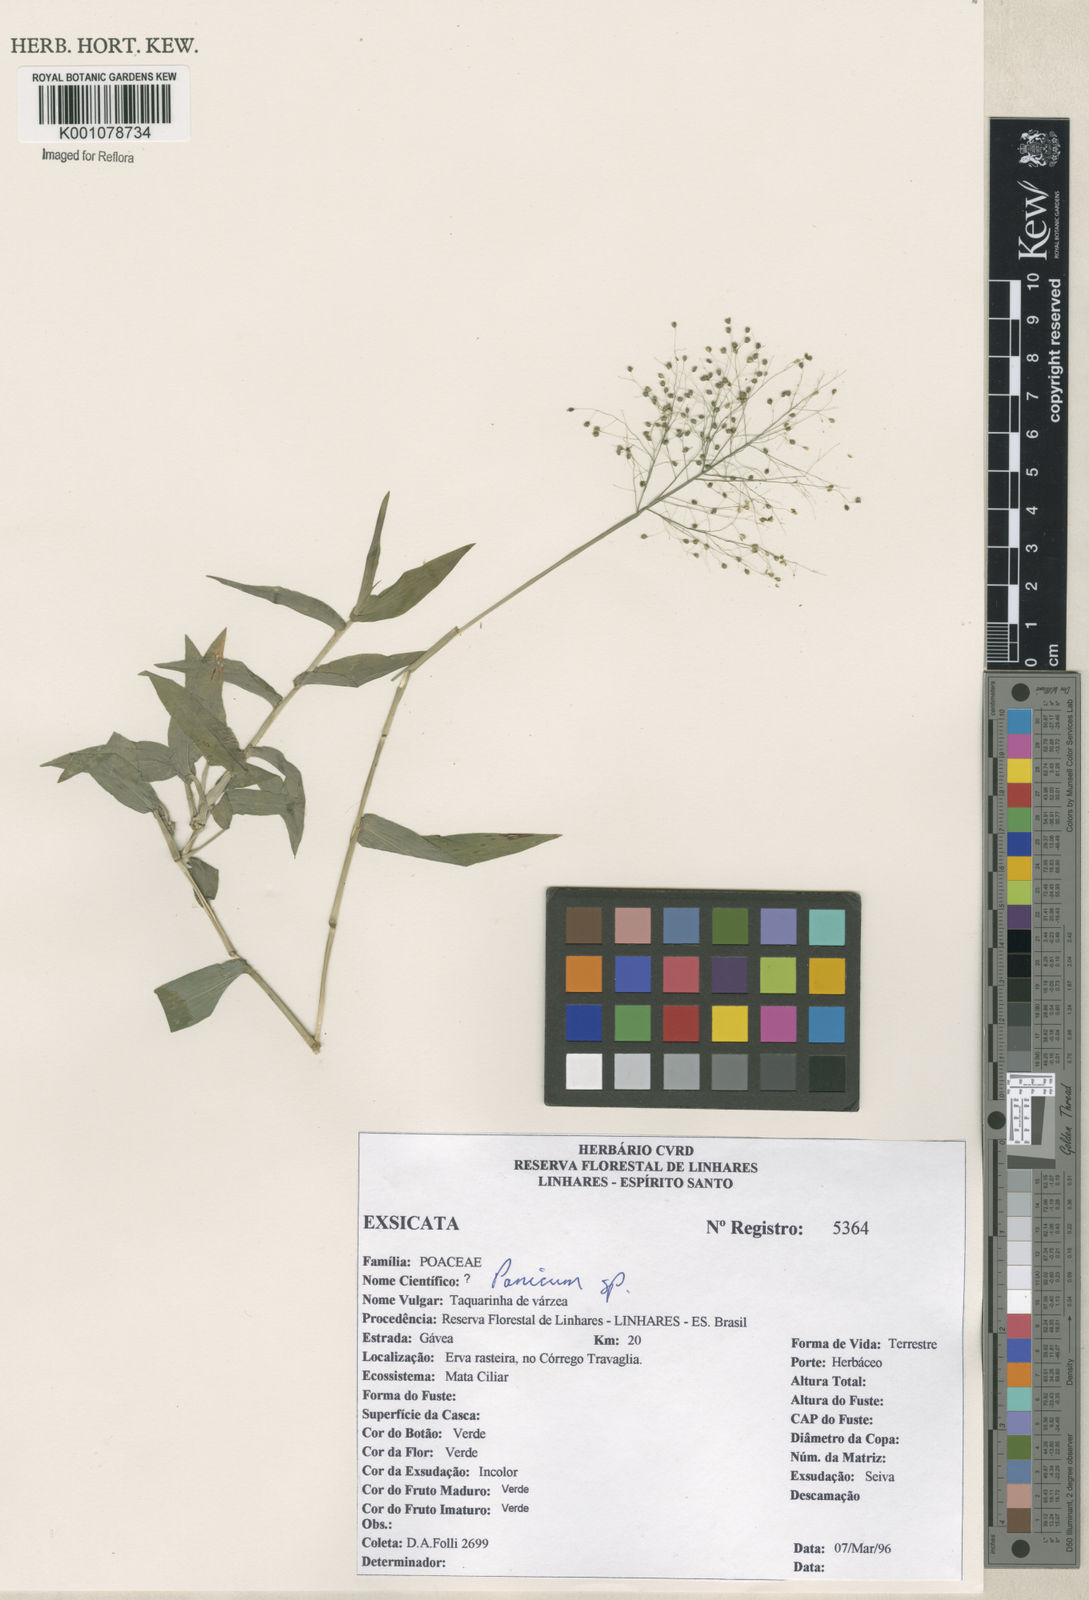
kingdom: Plantae
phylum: Tracheophyta
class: Liliopsida
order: Poales
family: Poaceae
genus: Panicum
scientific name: Panicum
